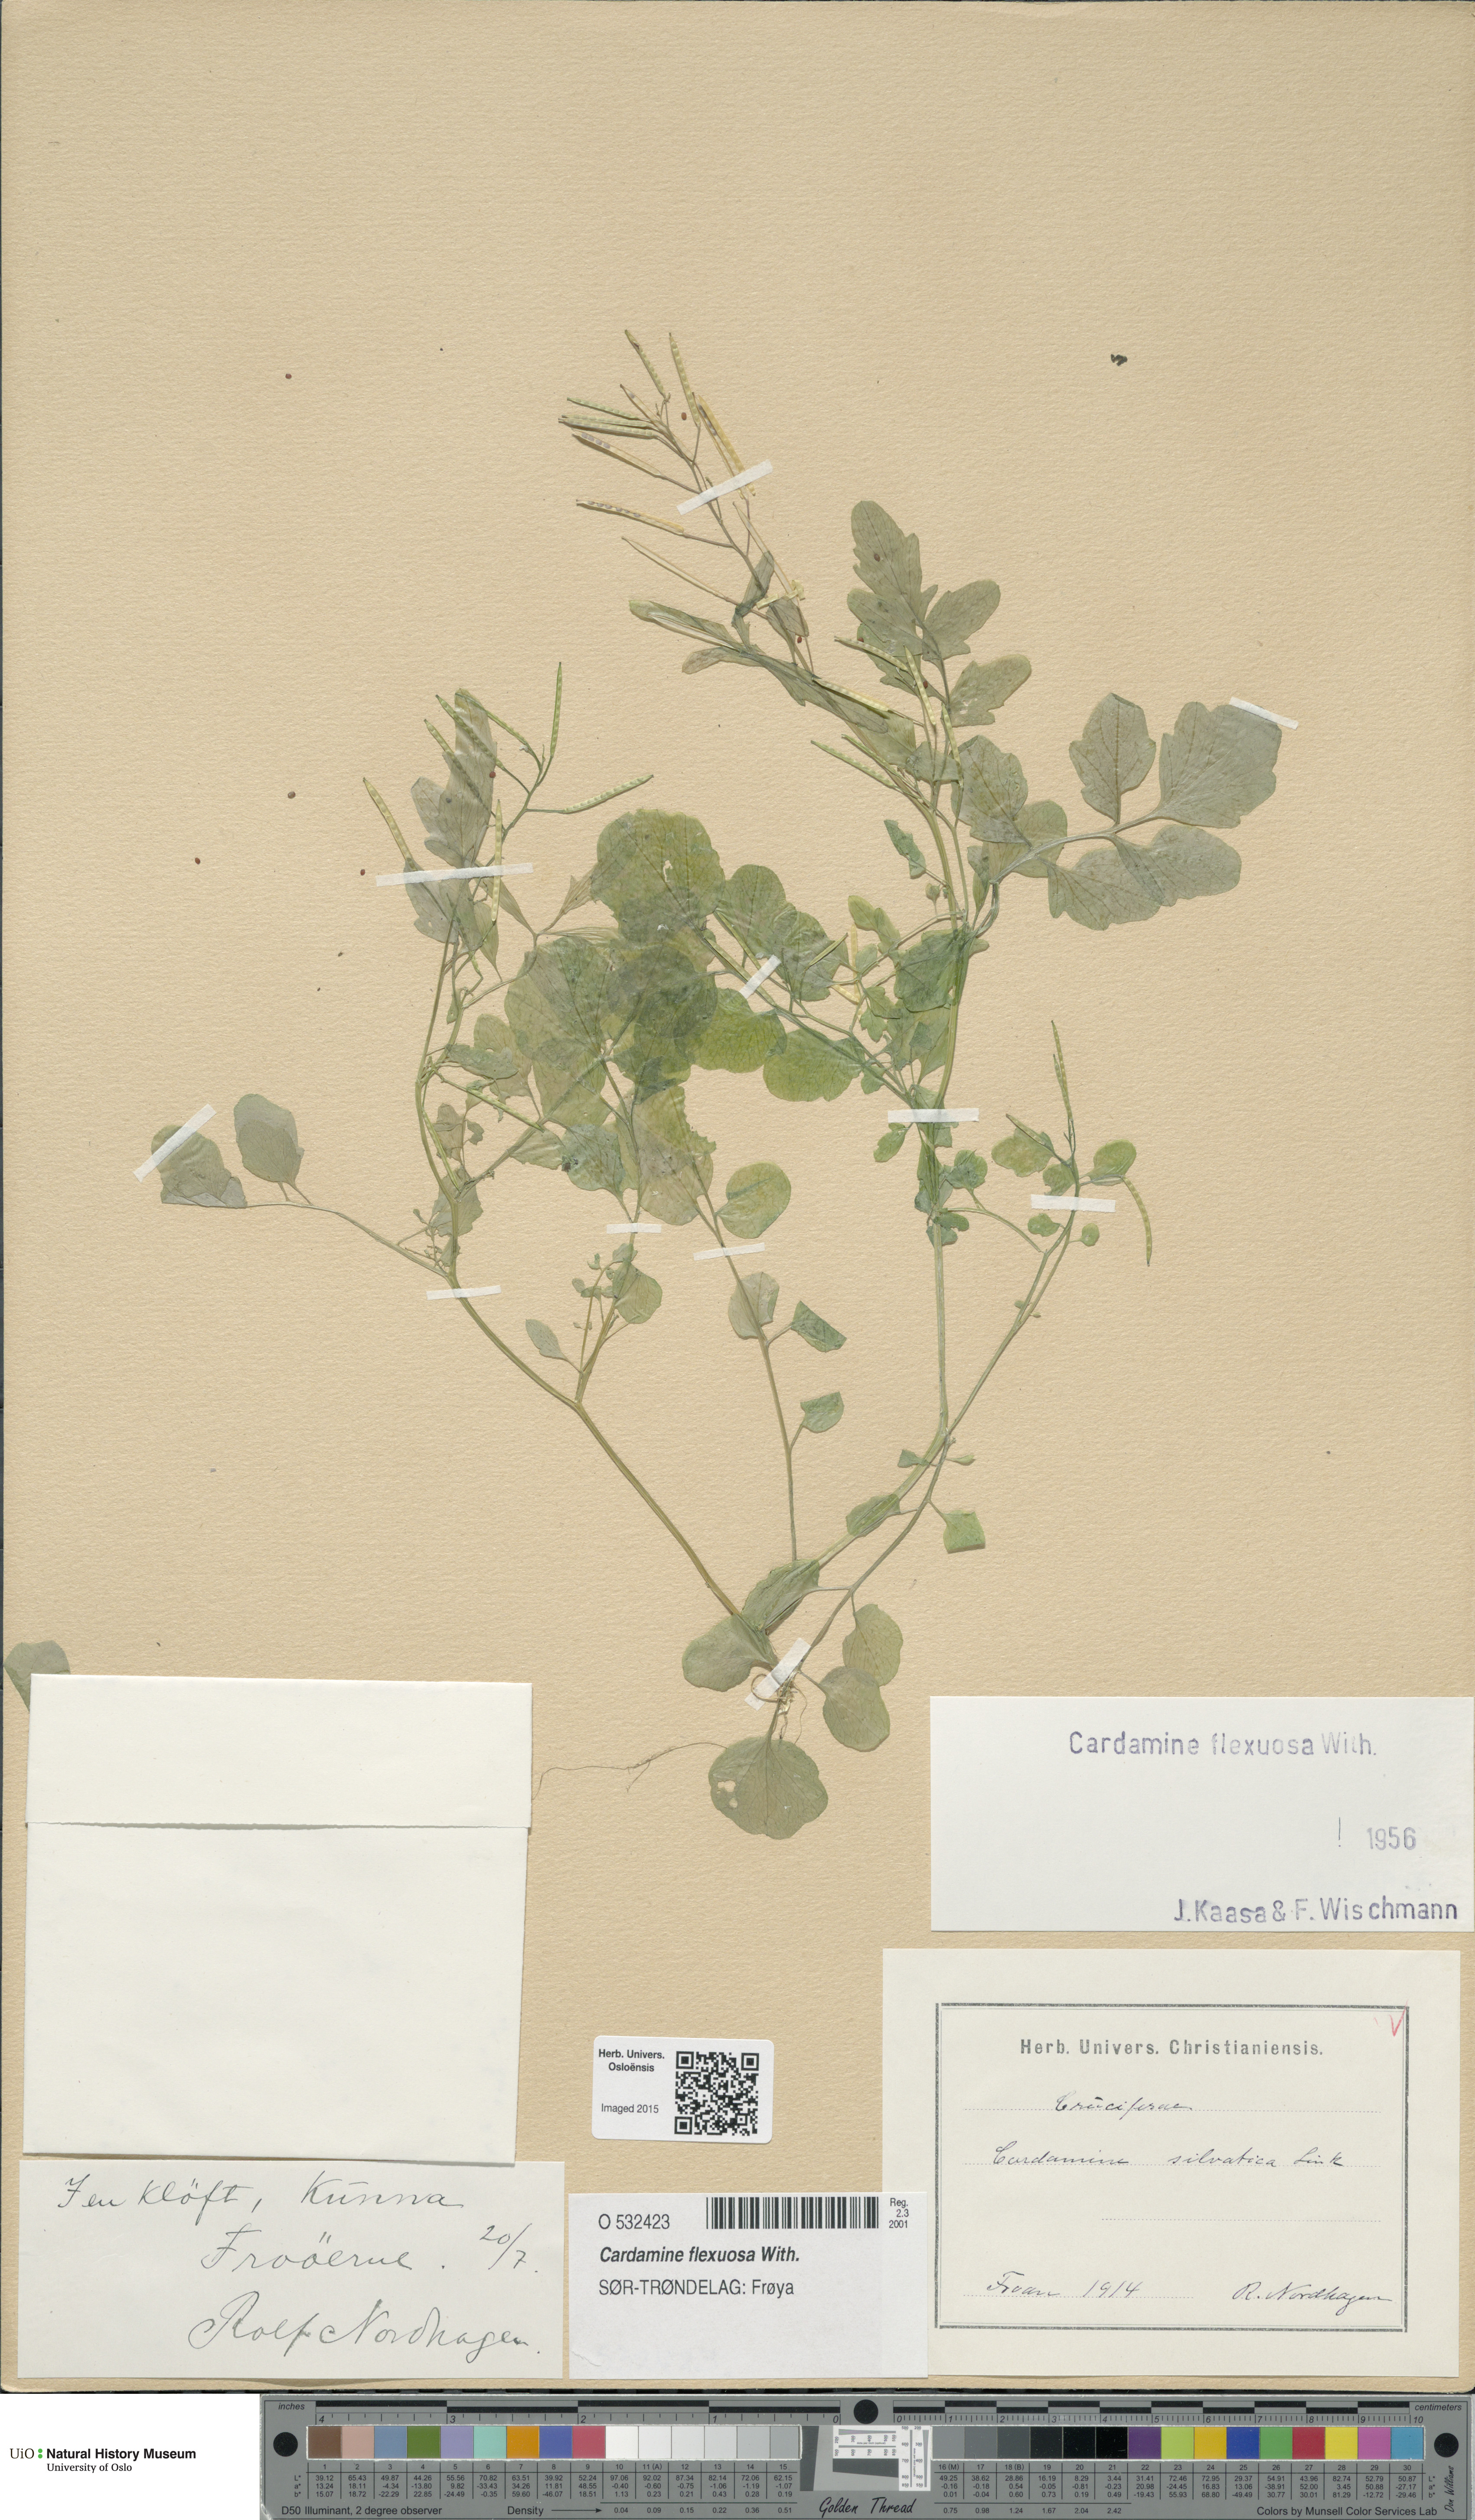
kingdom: Plantae
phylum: Tracheophyta
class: Magnoliopsida
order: Brassicales
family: Brassicaceae
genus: Cardamine
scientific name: Cardamine flexuosa
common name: Woodland bittercress
